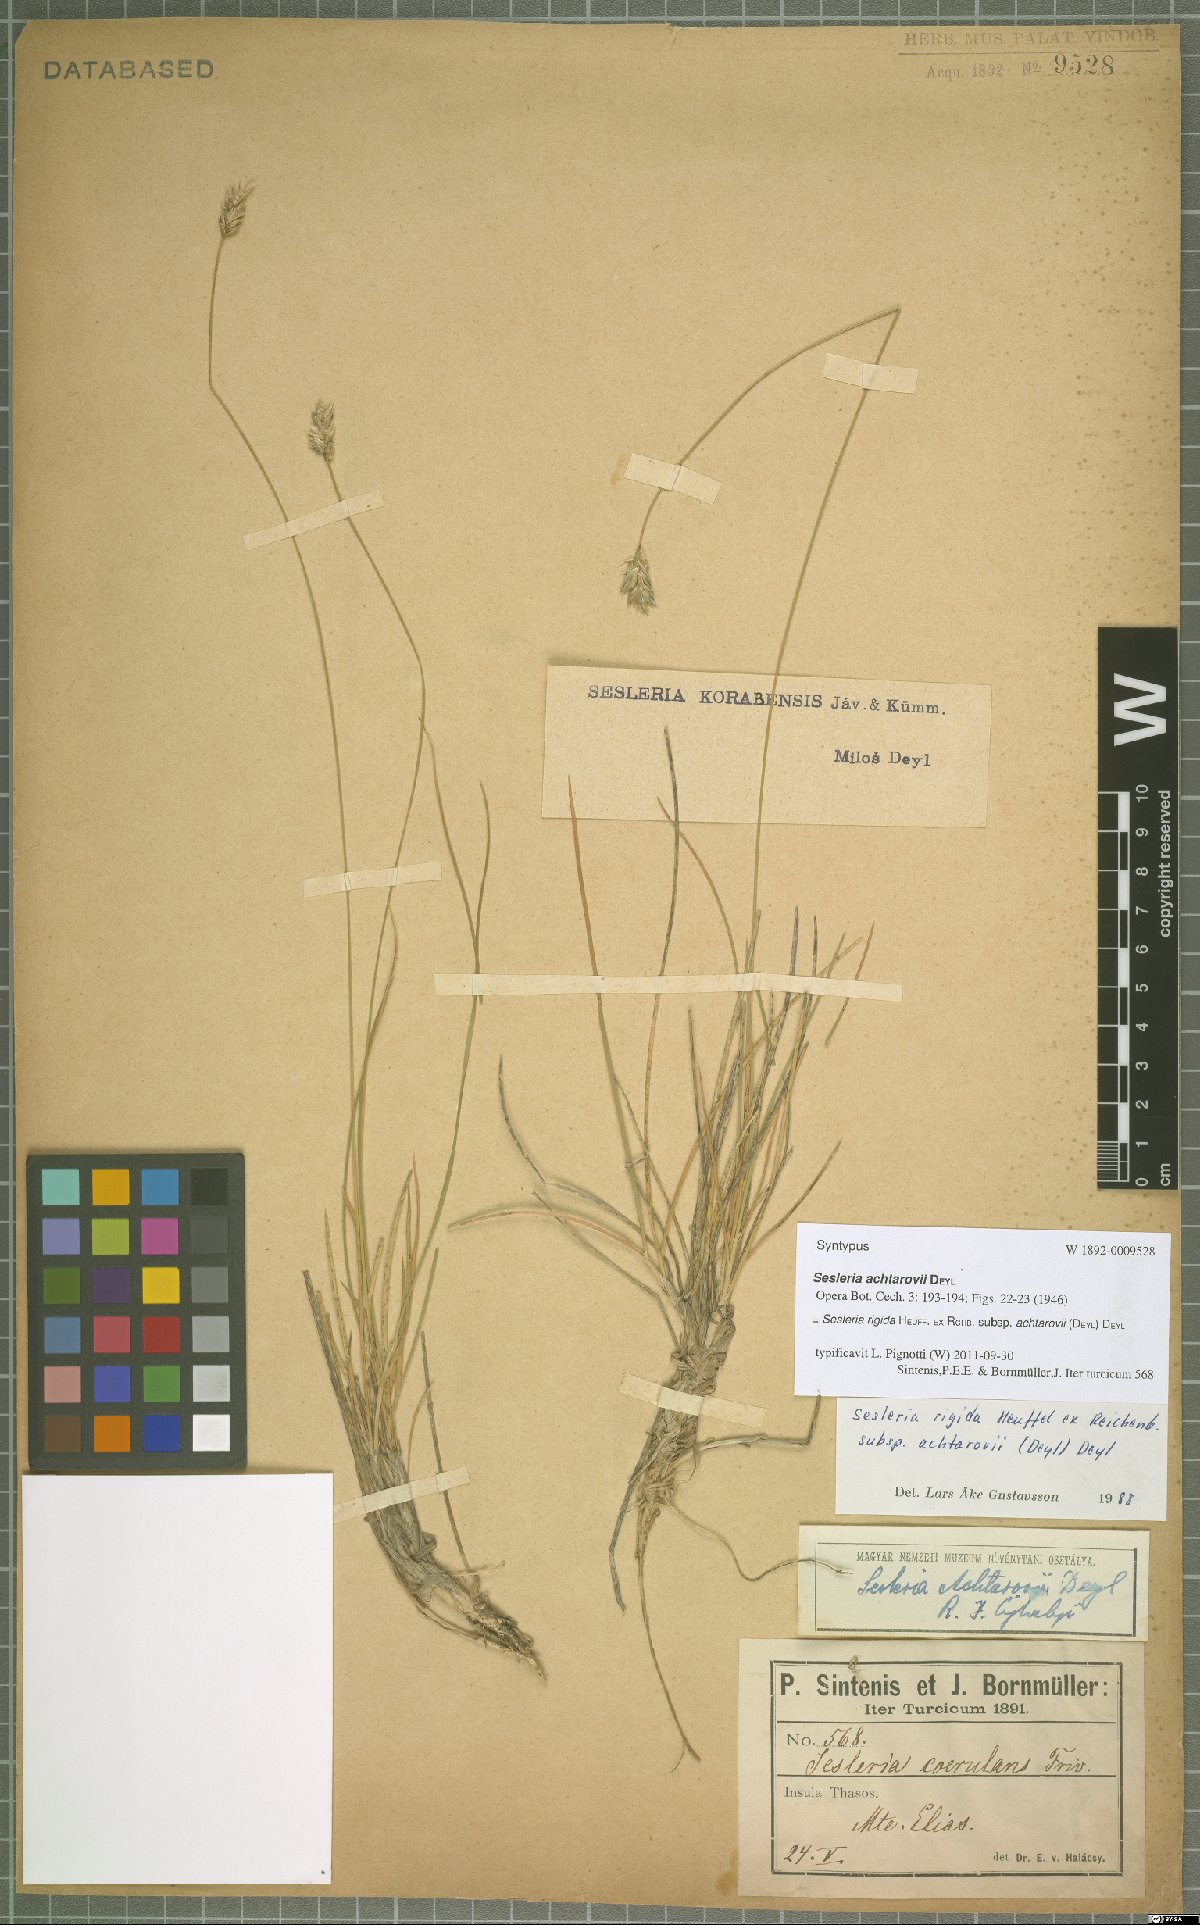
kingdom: Plantae
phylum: Tracheophyta
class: Liliopsida
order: Poales
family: Poaceae
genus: Sesleria
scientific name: Sesleria achtarovii
